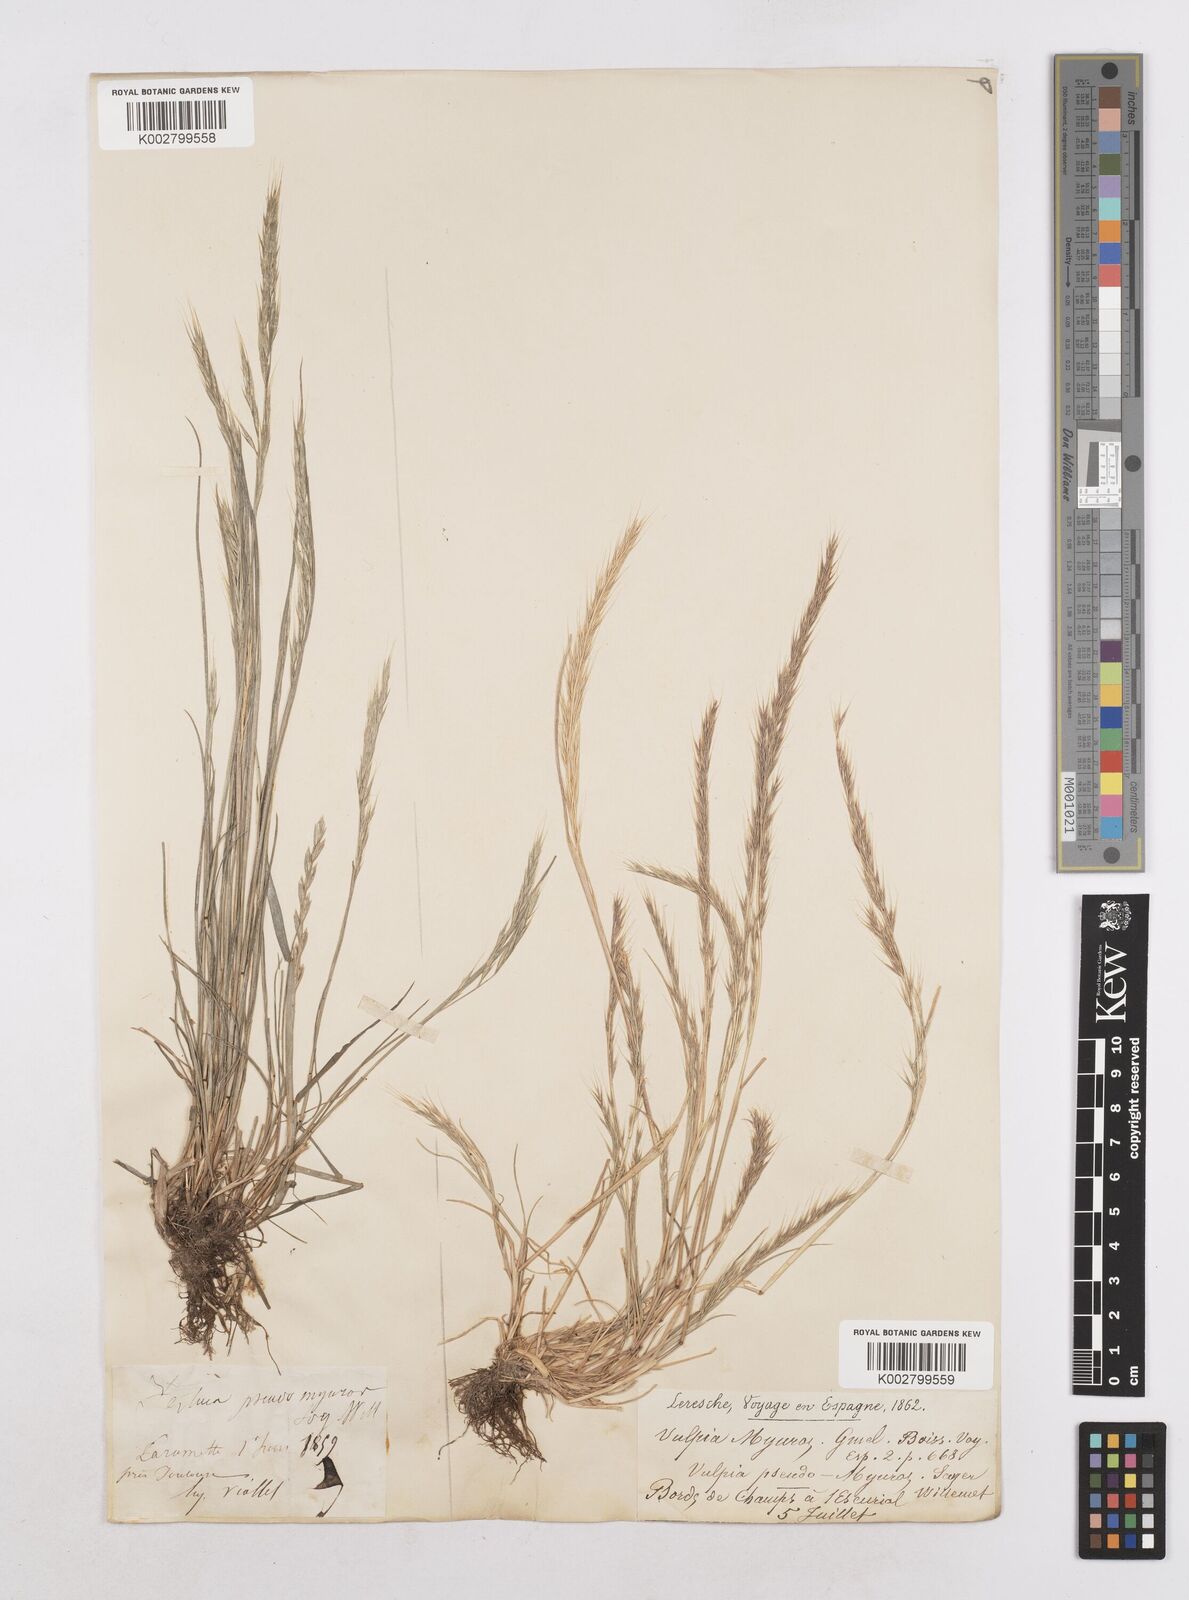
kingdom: Plantae
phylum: Tracheophyta
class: Liliopsida
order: Poales
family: Poaceae
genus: Festuca
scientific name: Festuca myuros
